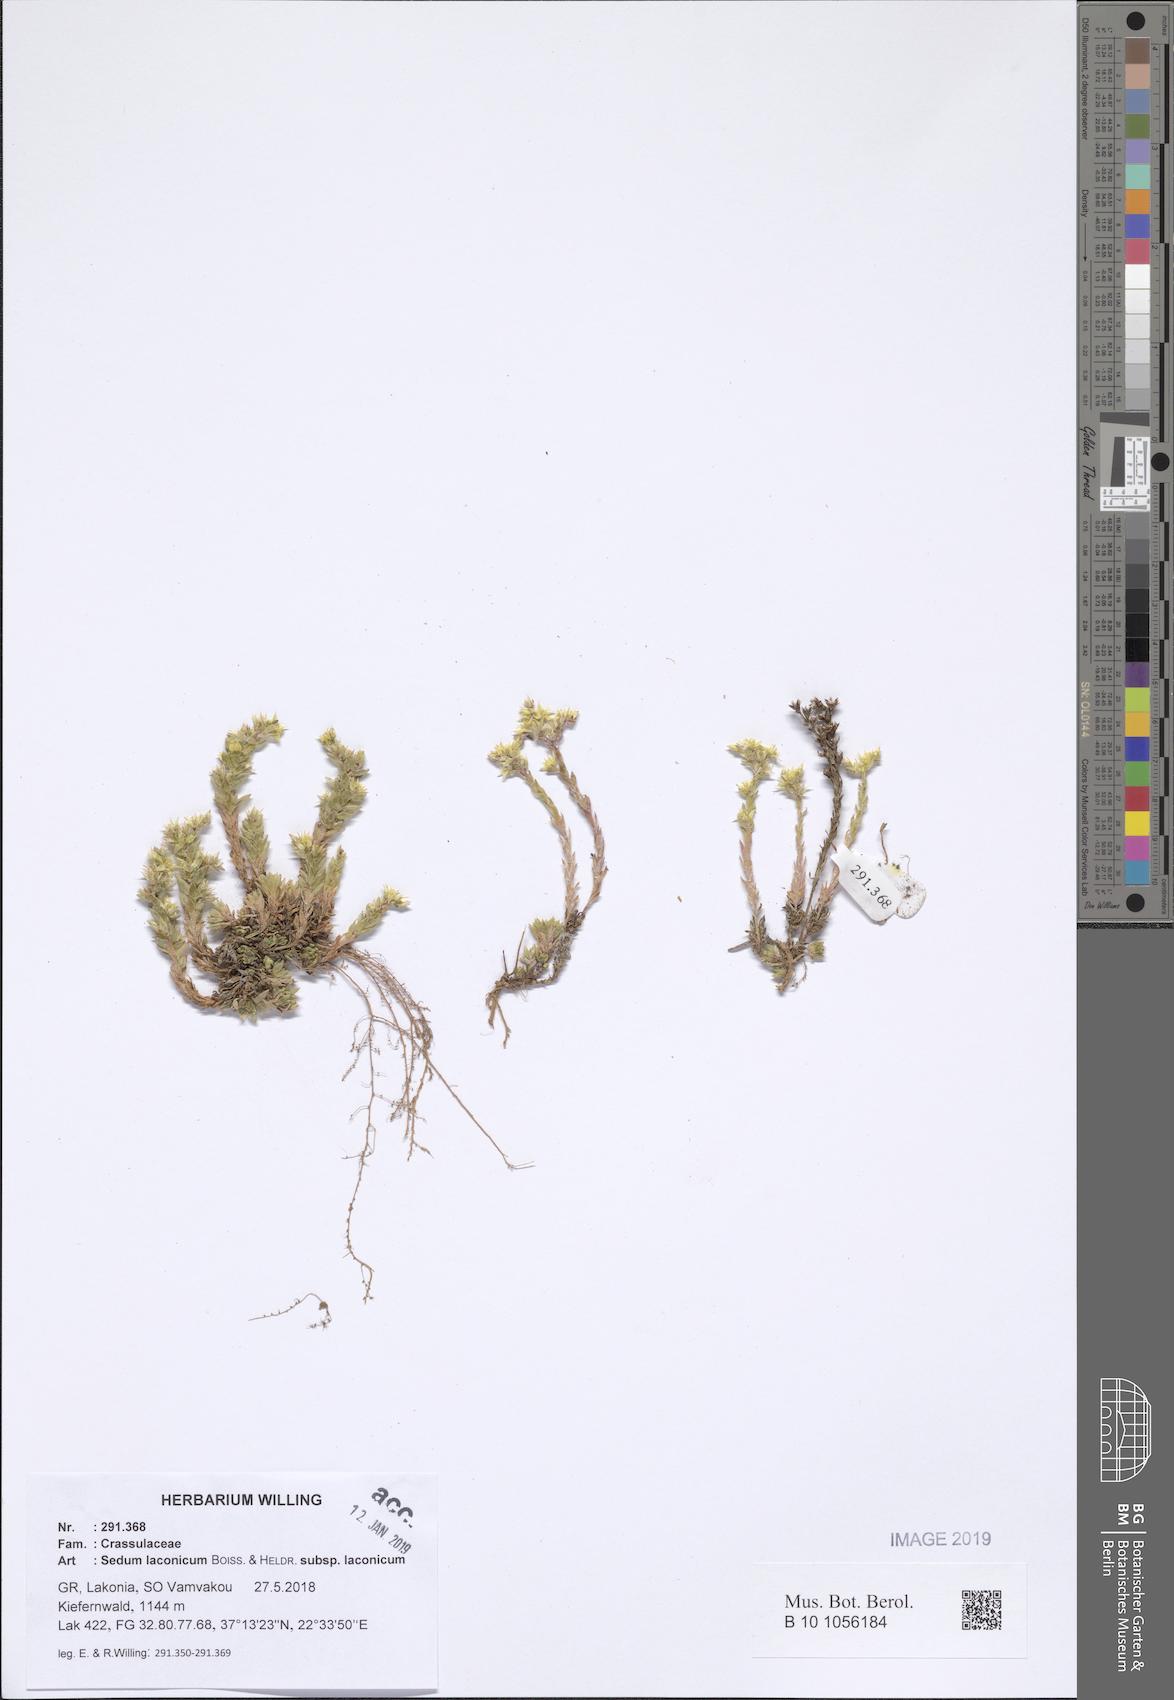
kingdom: Plantae
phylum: Tracheophyta
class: Magnoliopsida
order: Saxifragales
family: Crassulaceae
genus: Sedum
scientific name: Sedum laconicum
